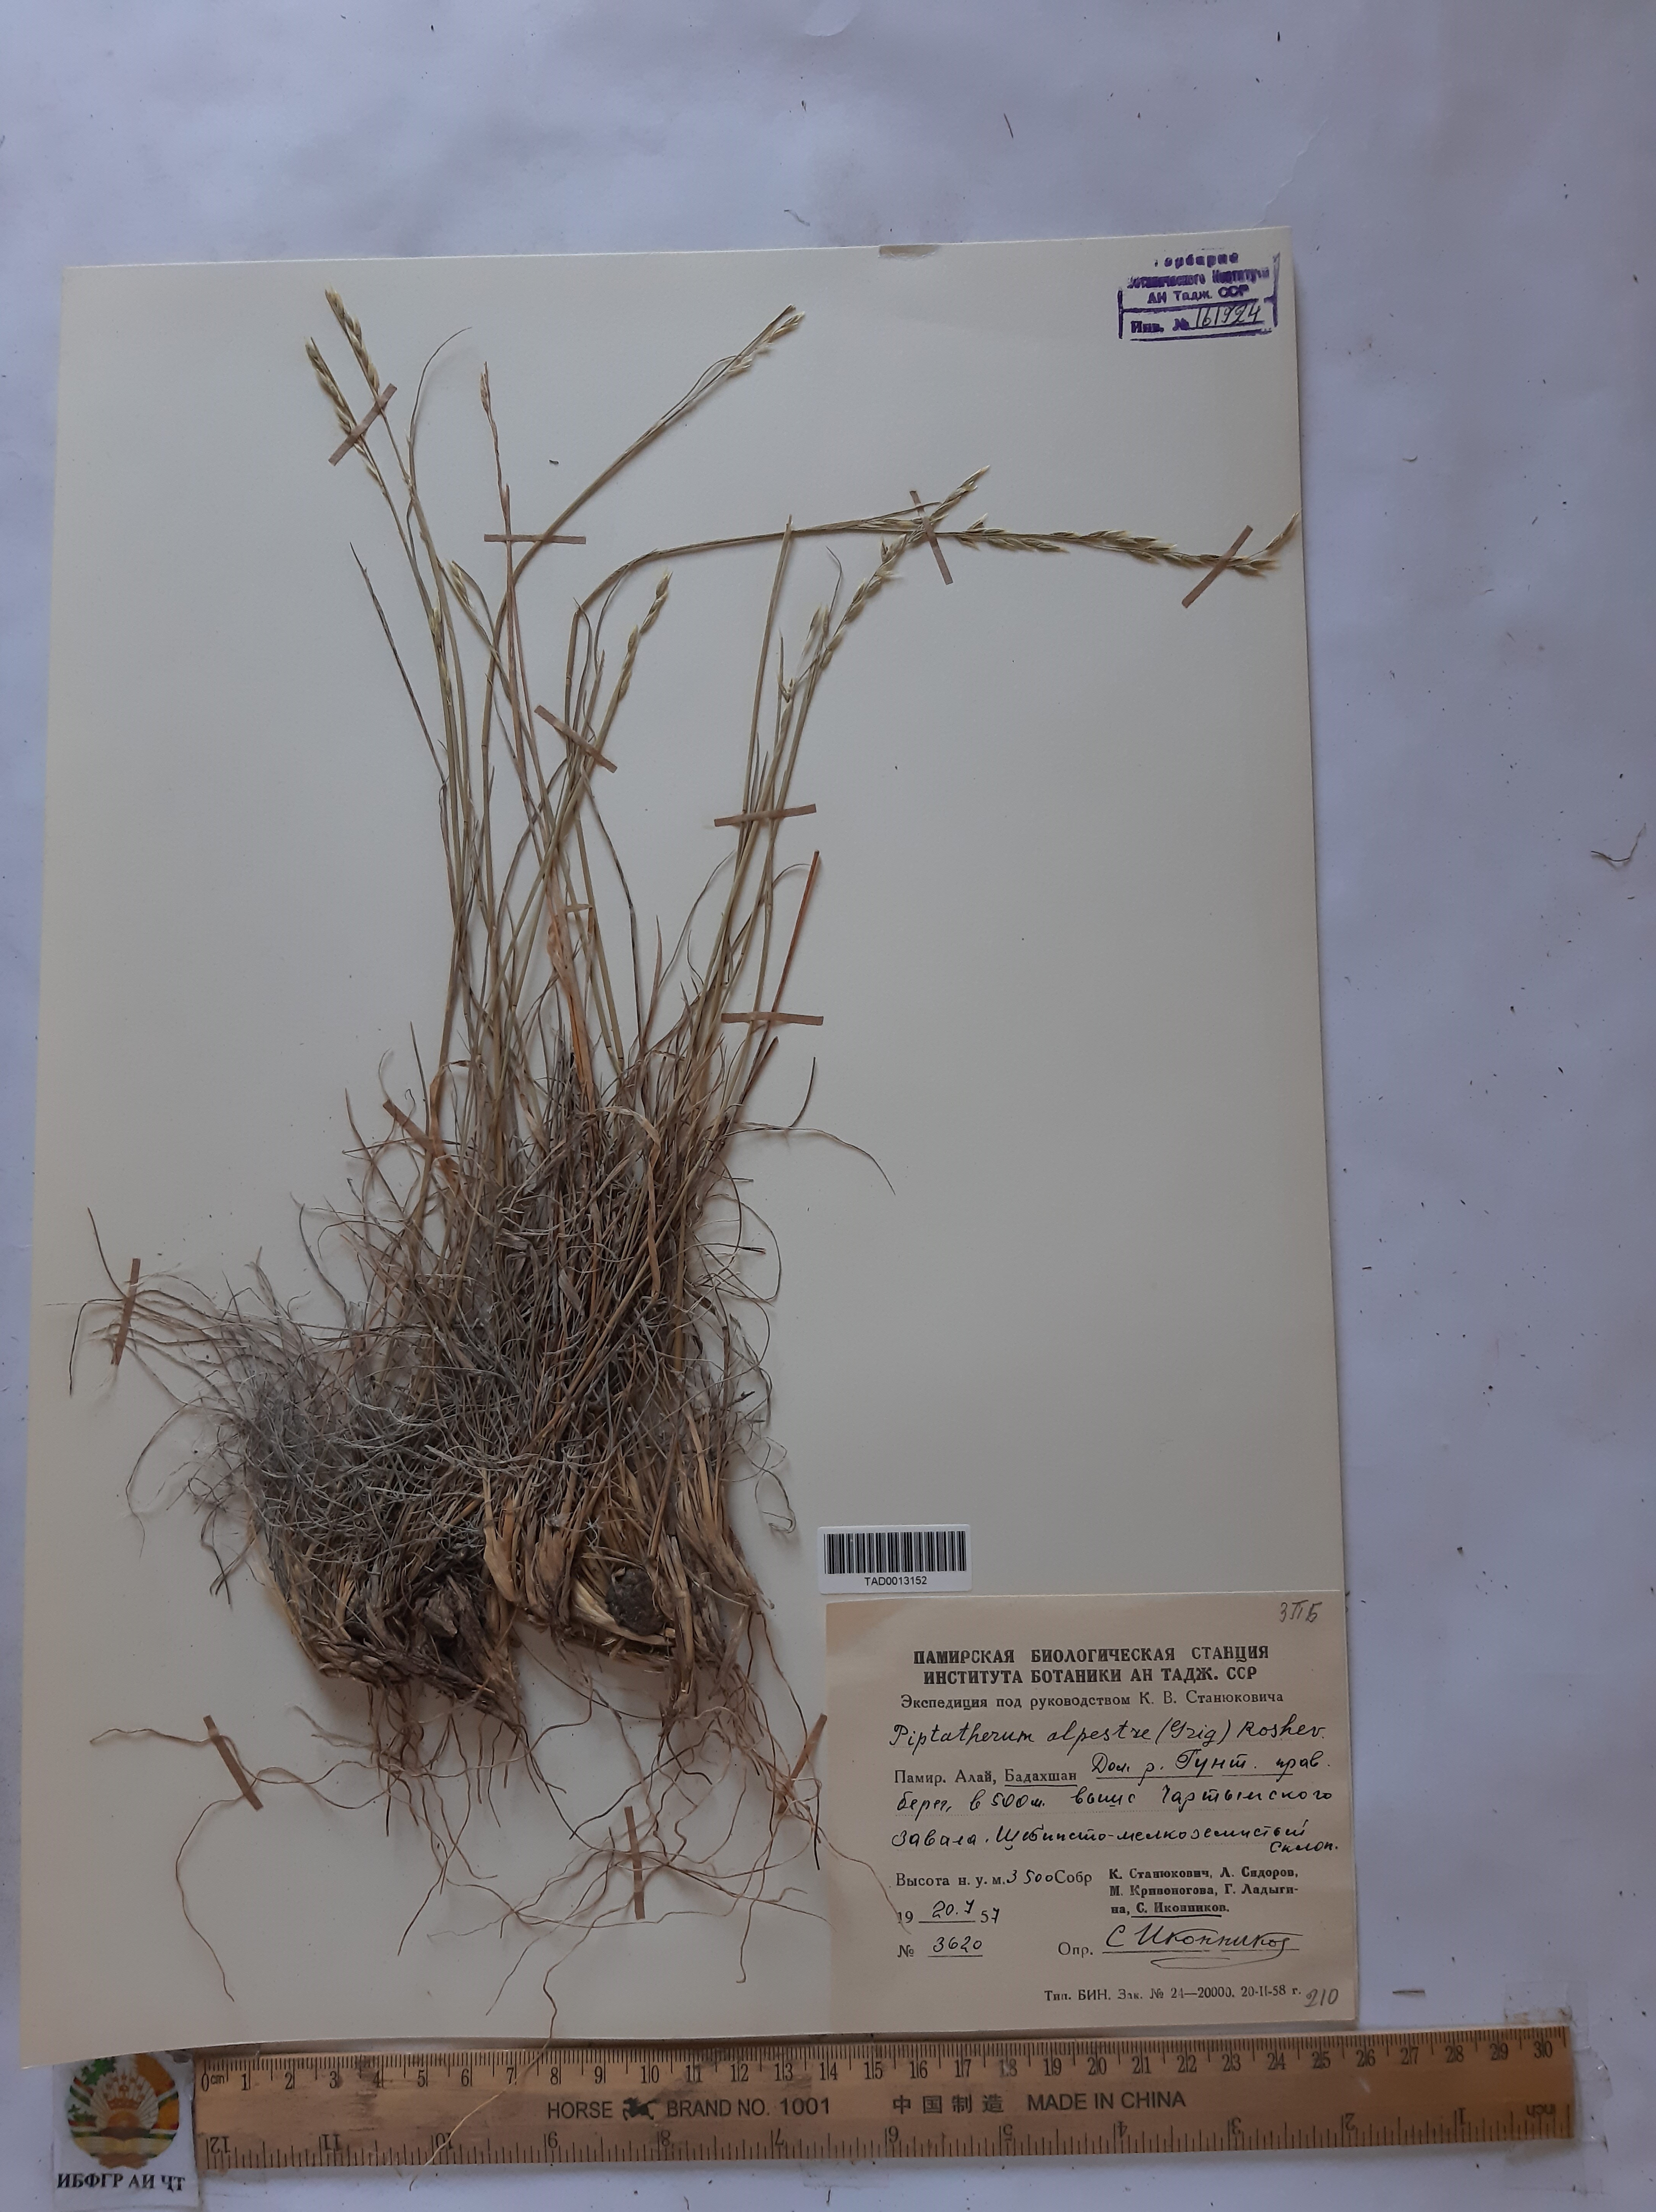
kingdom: Plantae
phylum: Tracheophyta
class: Liliopsida
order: Poales
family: Poaceae
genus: Piptatherum
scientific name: Piptatherum alpestre
